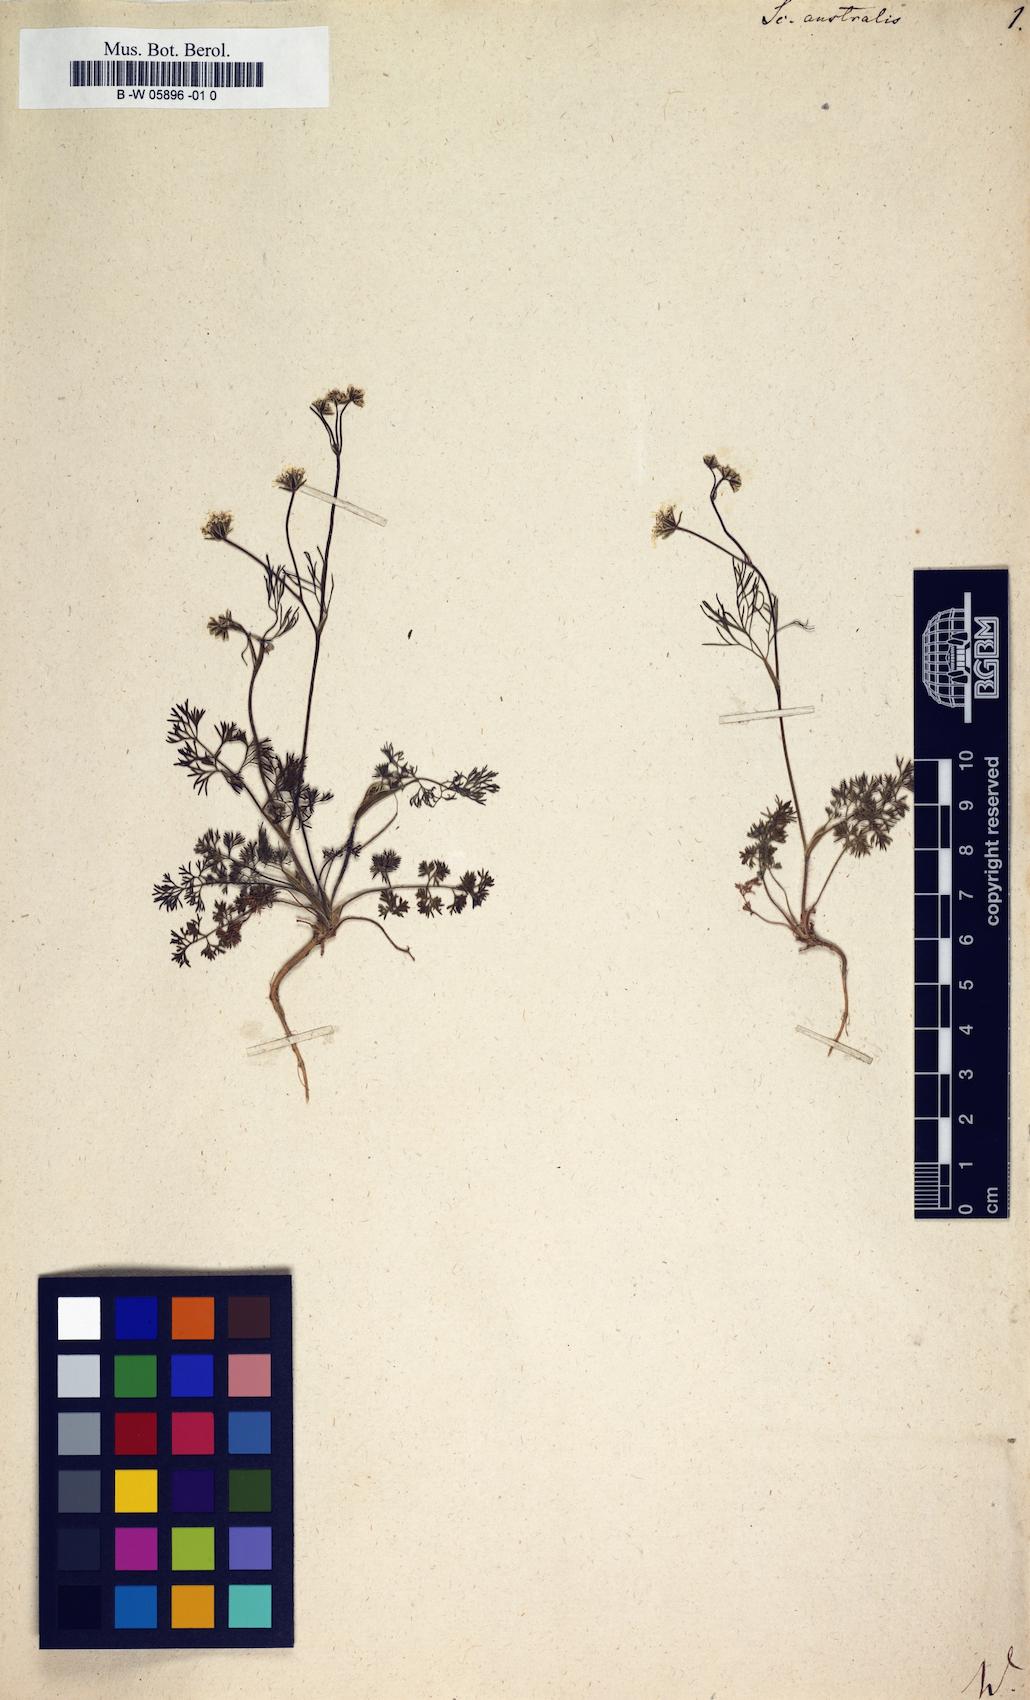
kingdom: Plantae
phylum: Tracheophyta
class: Magnoliopsida
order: Apiales
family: Apiaceae
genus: Scandix
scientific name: Scandix australis
